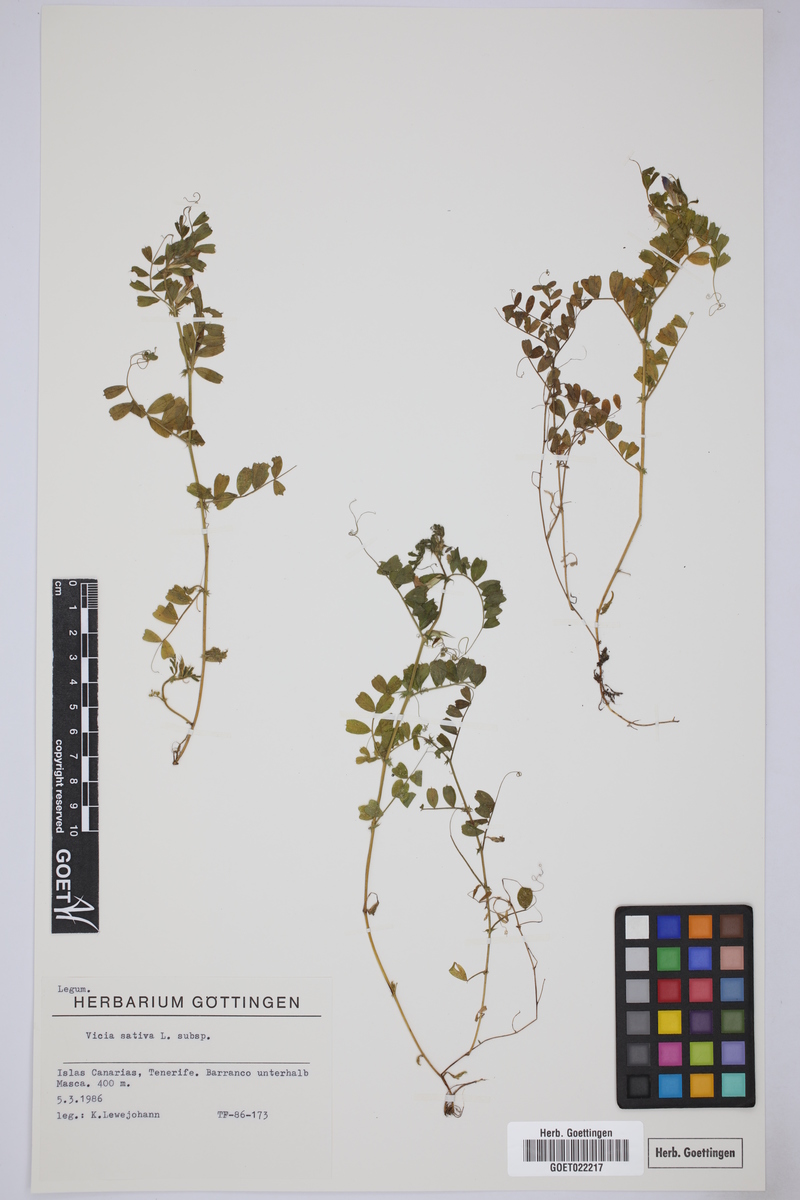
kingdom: Plantae
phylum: Tracheophyta
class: Magnoliopsida
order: Fabales
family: Fabaceae
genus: Vicia
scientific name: Vicia sativa
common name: Garden vetch
